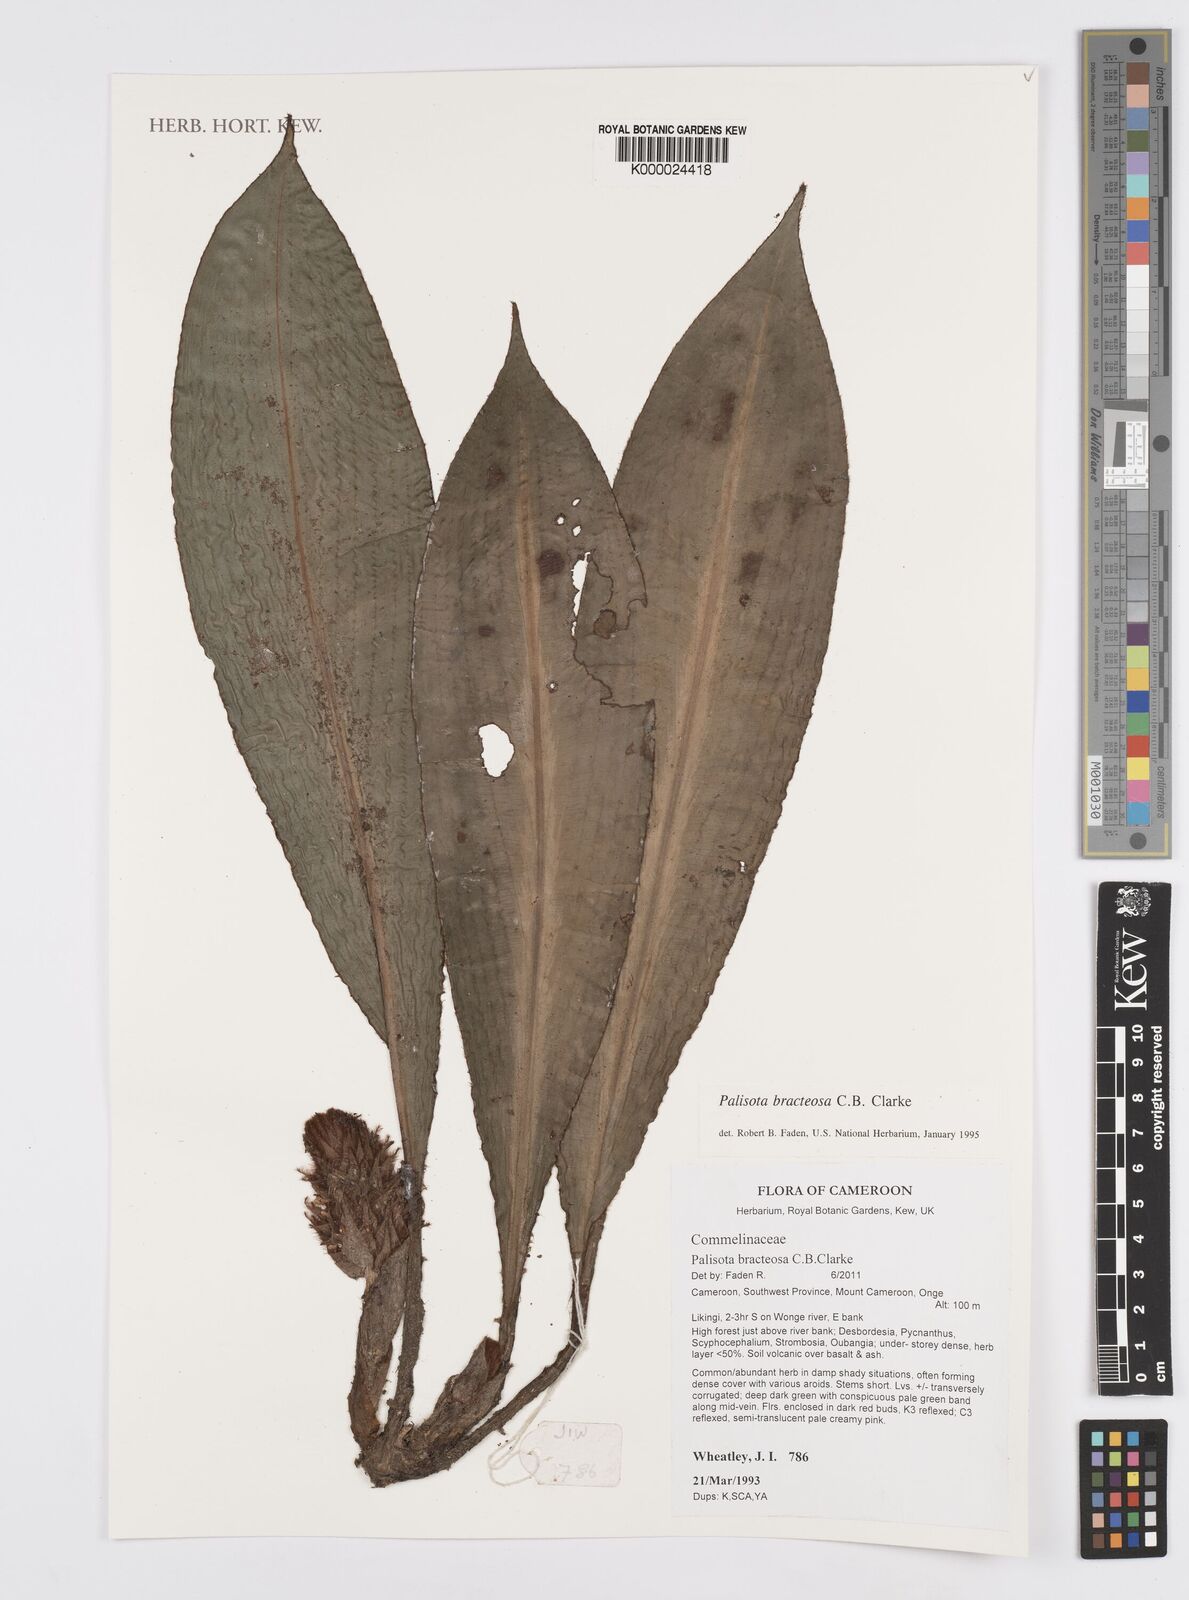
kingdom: Plantae
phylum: Tracheophyta
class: Liliopsida
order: Commelinales
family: Commelinaceae
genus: Palisota
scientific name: Palisota bracteosa
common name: Palisota
